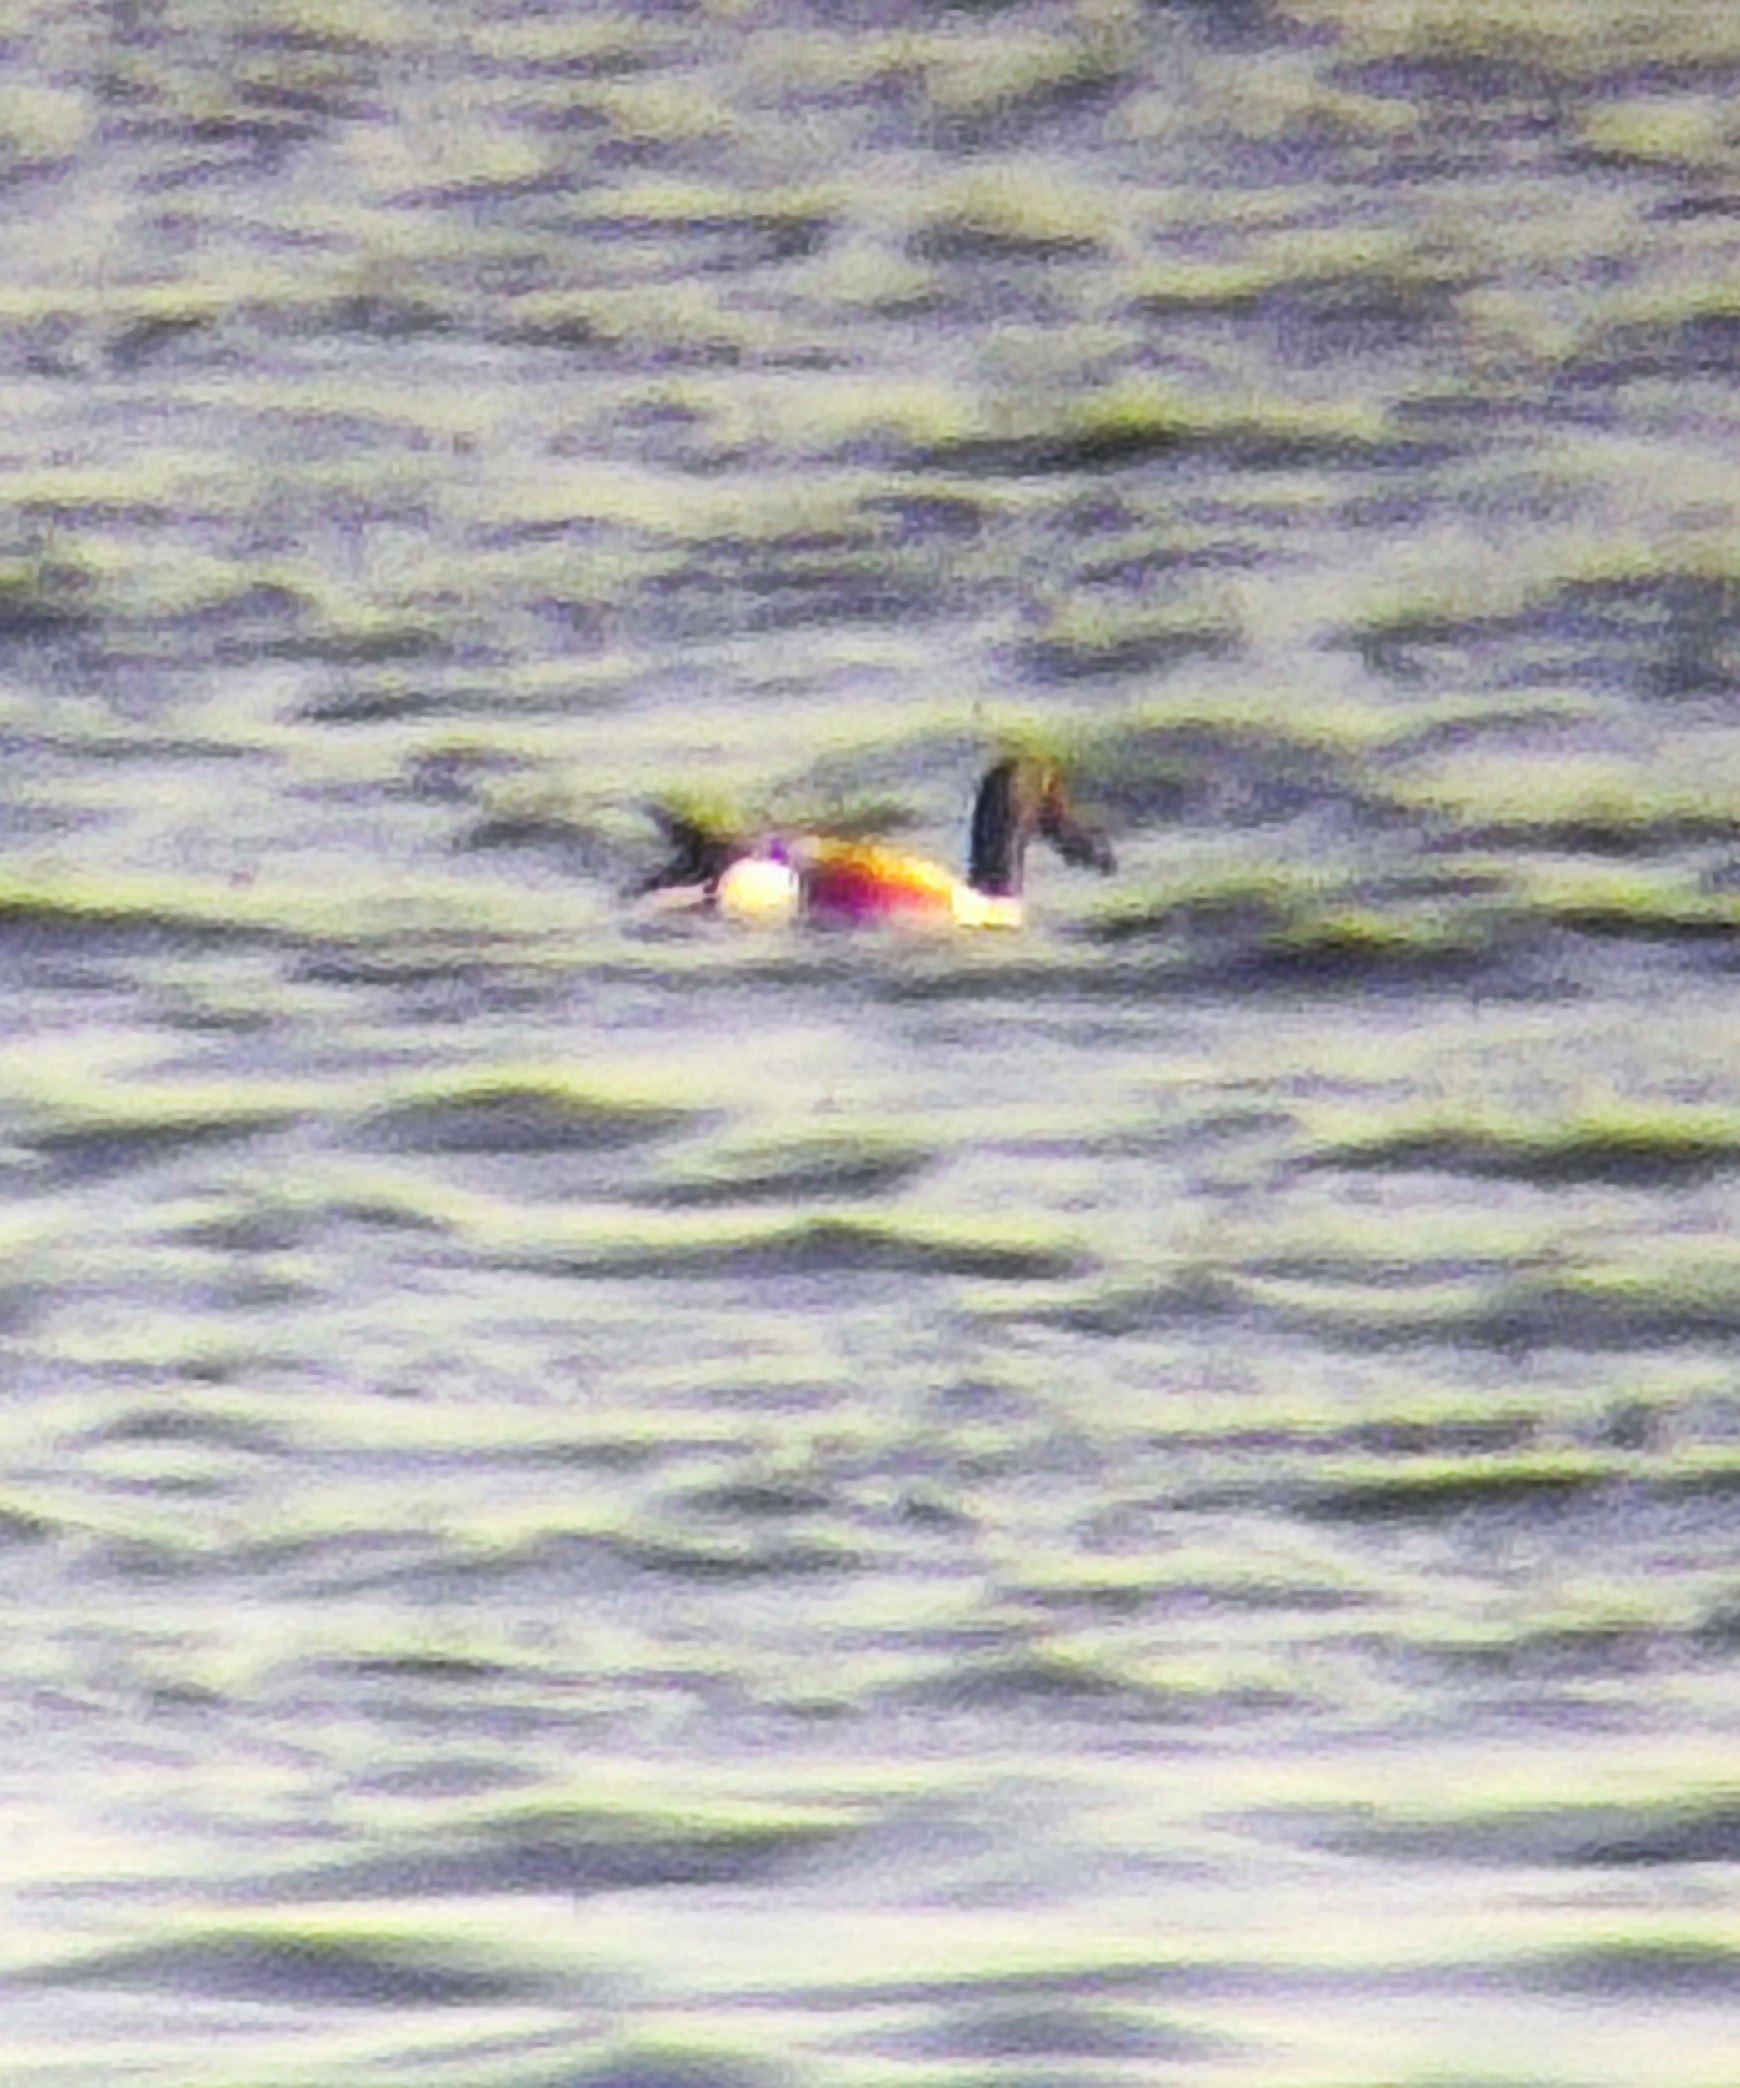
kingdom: Animalia
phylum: Chordata
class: Aves
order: Anseriformes
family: Anatidae
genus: Spatula
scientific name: Spatula clypeata
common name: Skeand
